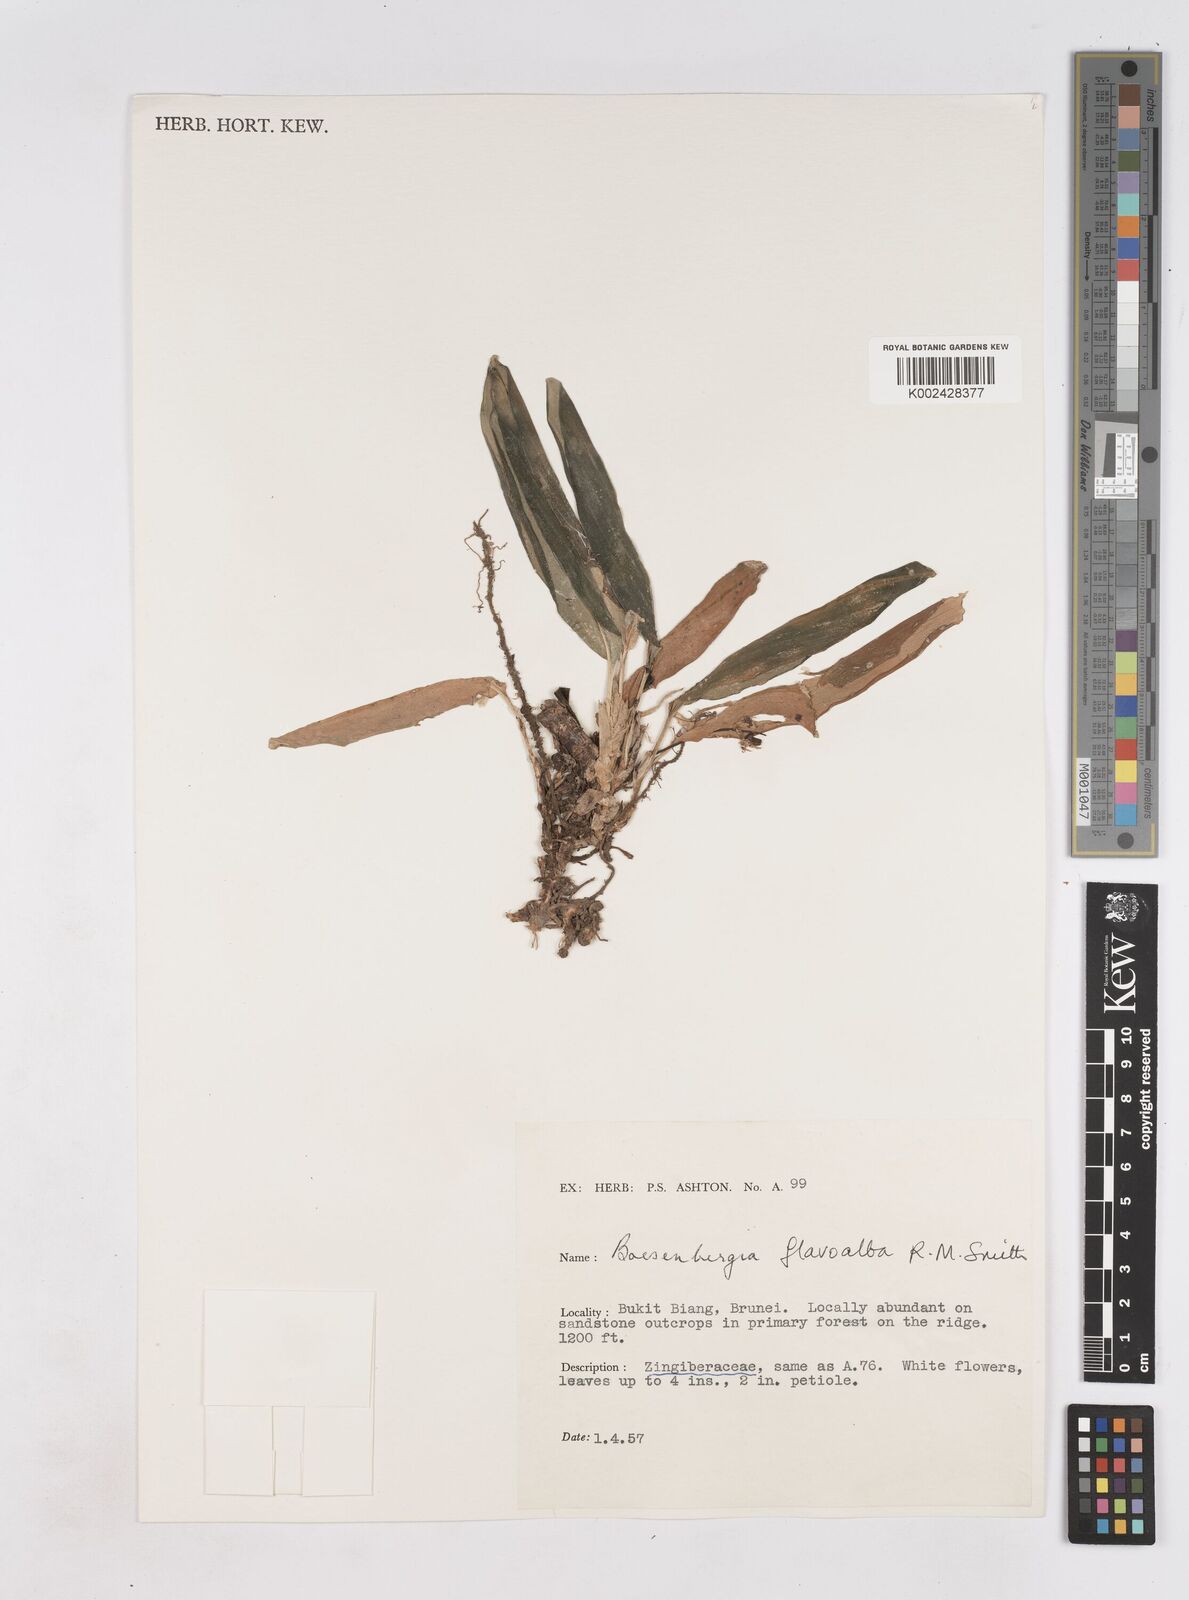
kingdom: Plantae
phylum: Tracheophyta
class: Liliopsida
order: Zingiberales
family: Zingiberaceae
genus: Boesenbergia
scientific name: Boesenbergia flavoalba
